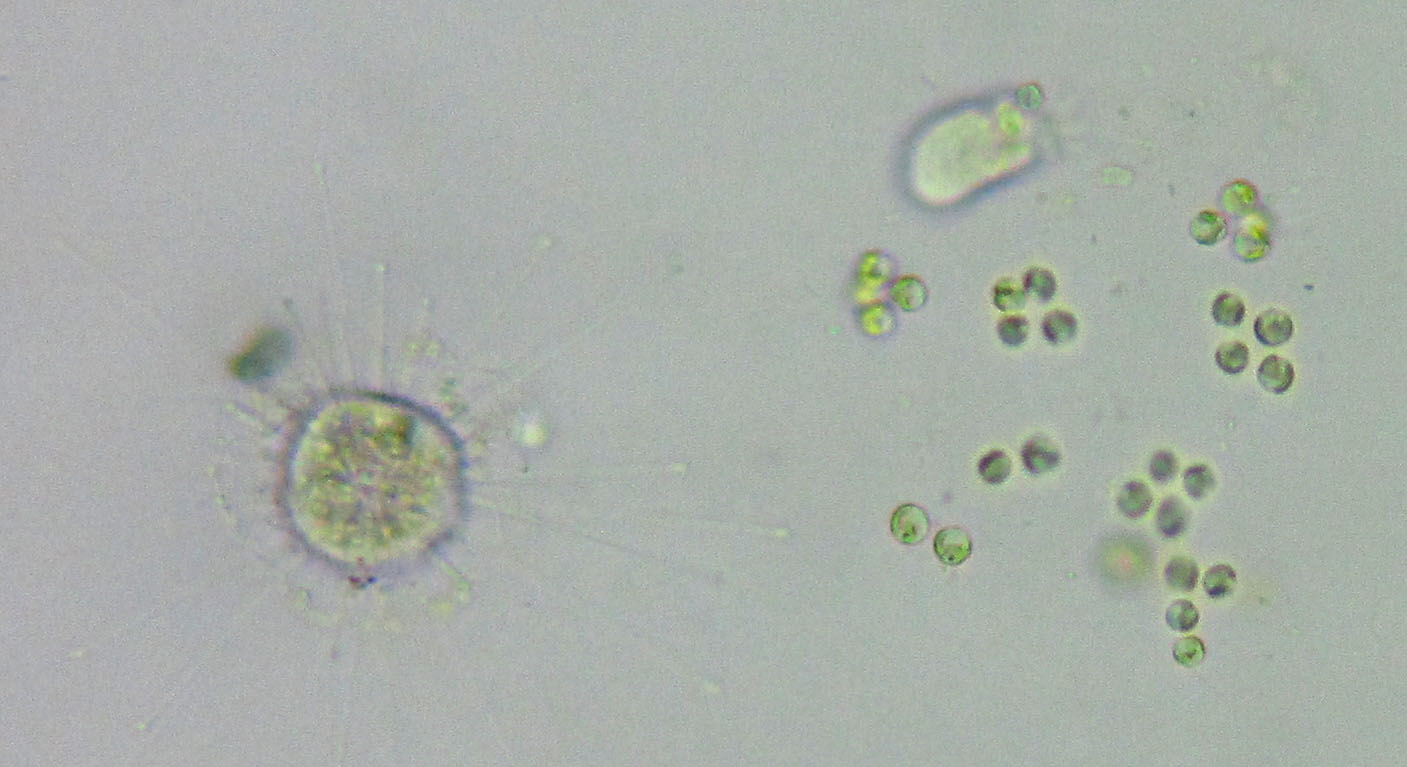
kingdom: Chromista
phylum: Ciliophora
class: Kinetofragminophora
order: Suctorida
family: Podophryidae
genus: Podophrya
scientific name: Podophrya
